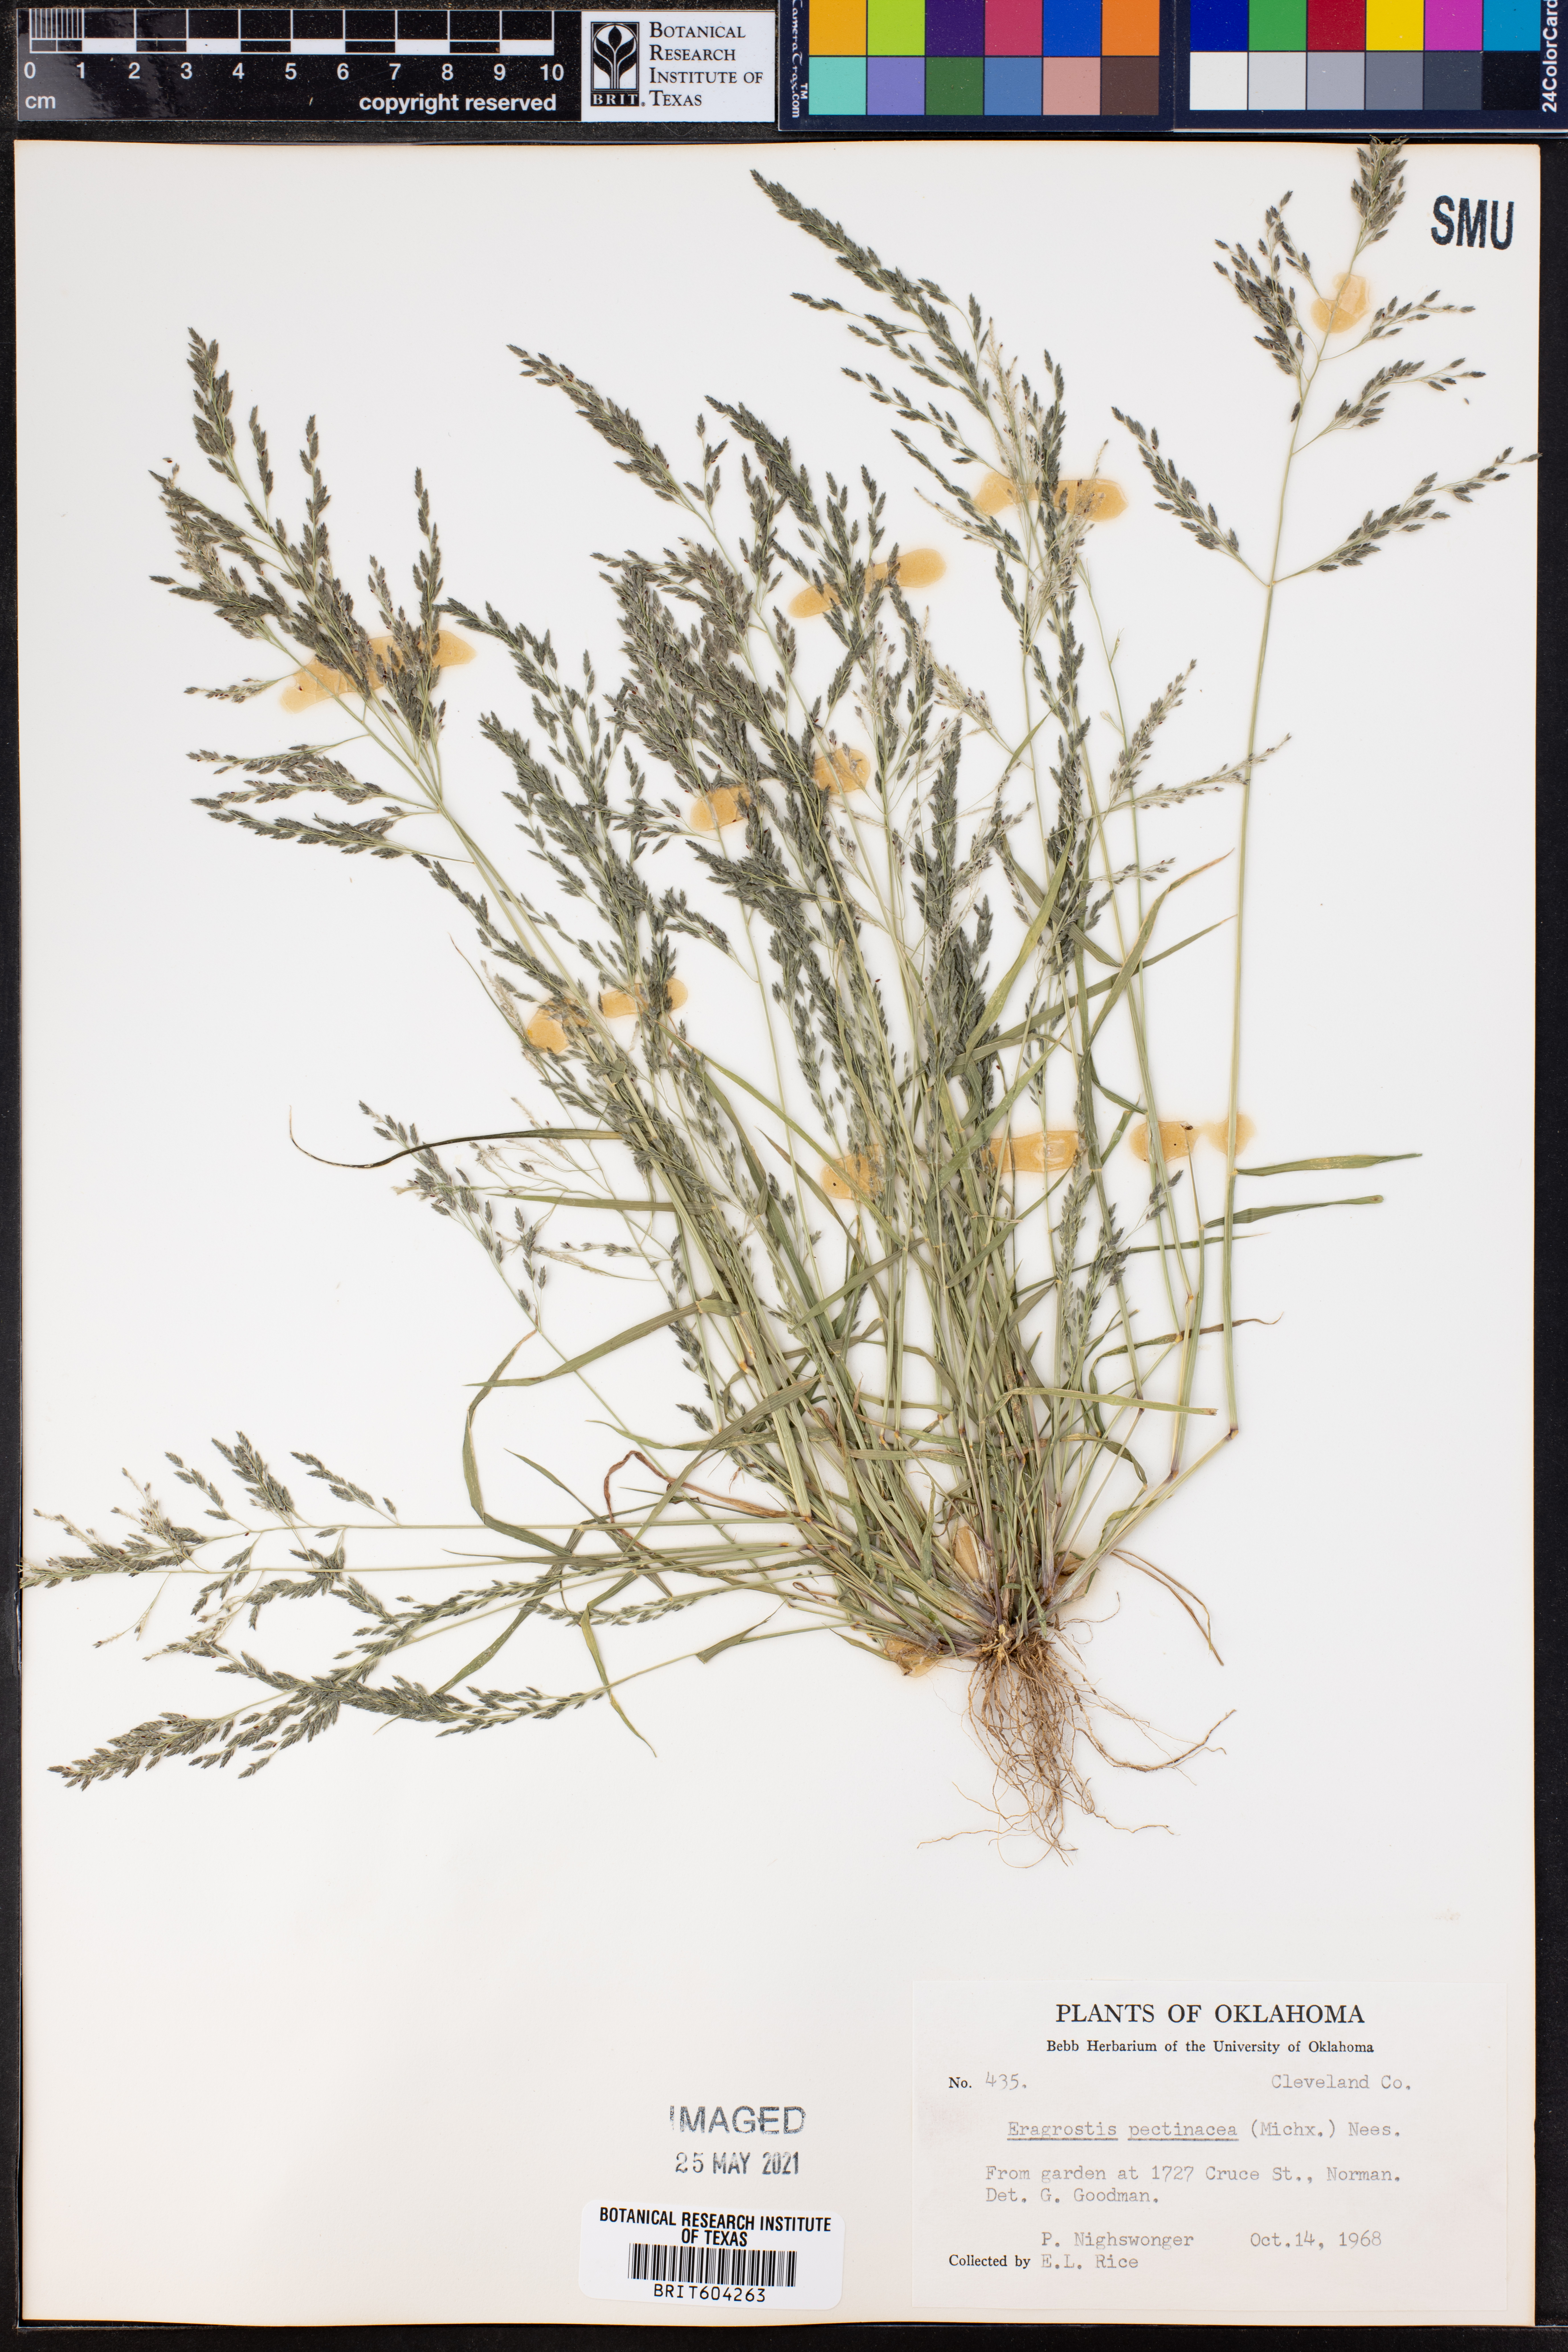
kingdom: Plantae
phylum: Tracheophyta
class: Liliopsida
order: Poales
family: Poaceae
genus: Eragrostis
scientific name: Eragrostis pectinacea
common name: Tufted lovegrass
